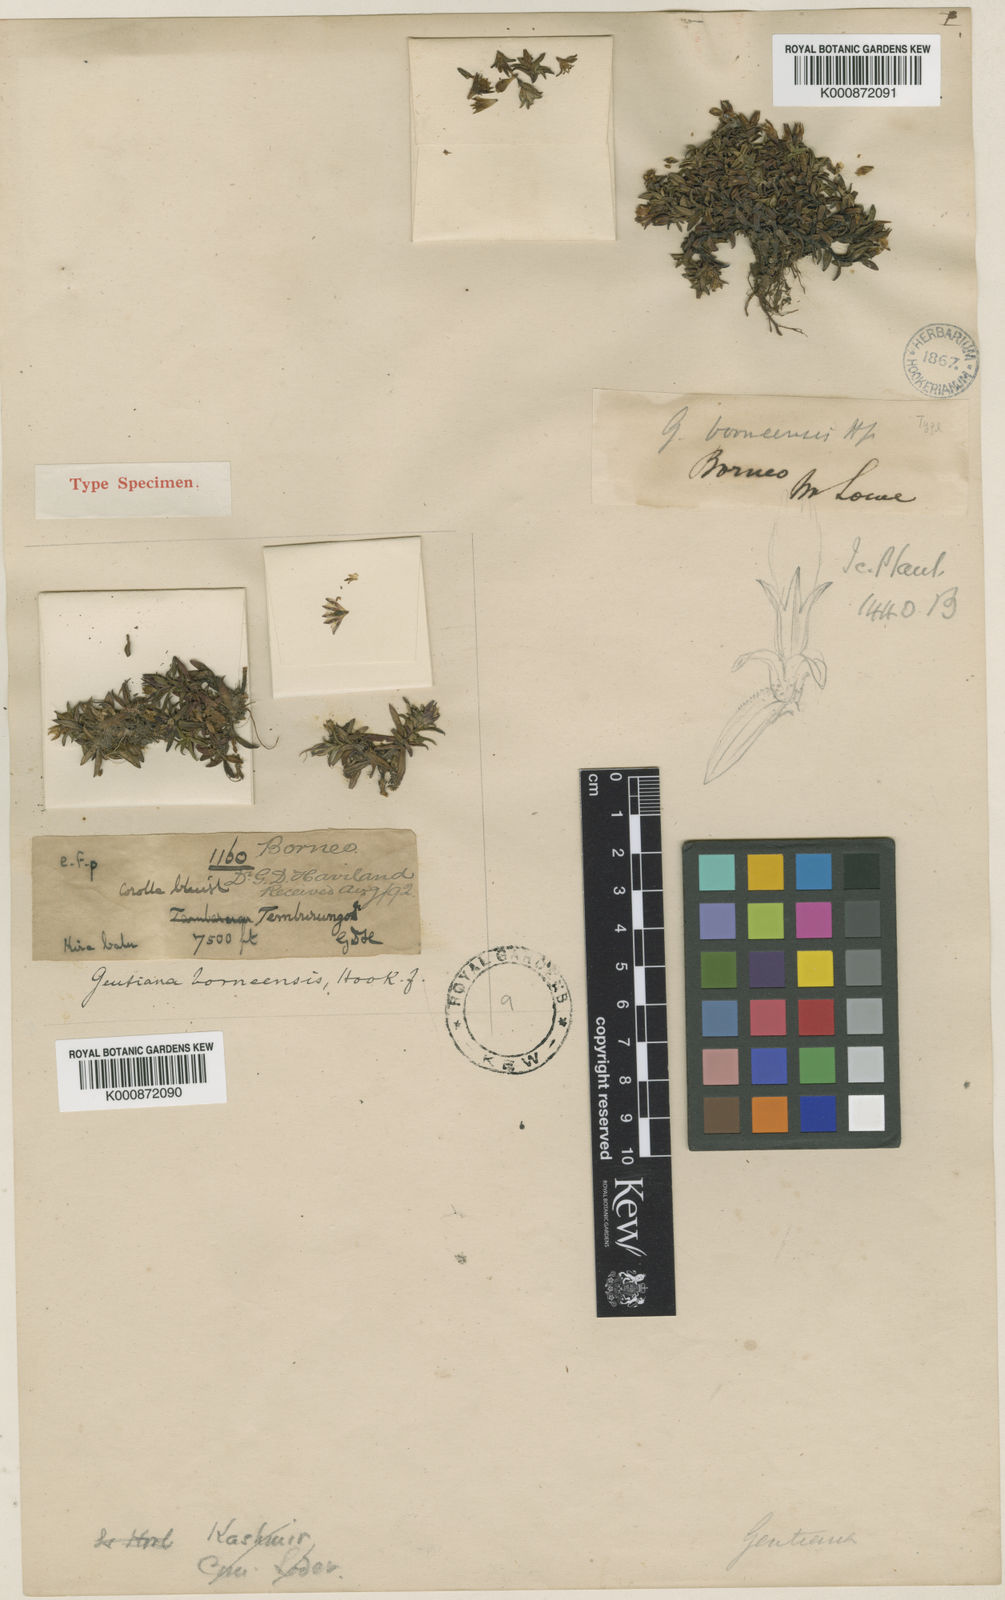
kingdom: Plantae
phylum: Tracheophyta
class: Magnoliopsida
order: Gentianales
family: Gentianaceae
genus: Gentiana
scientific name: Gentiana borneensis
